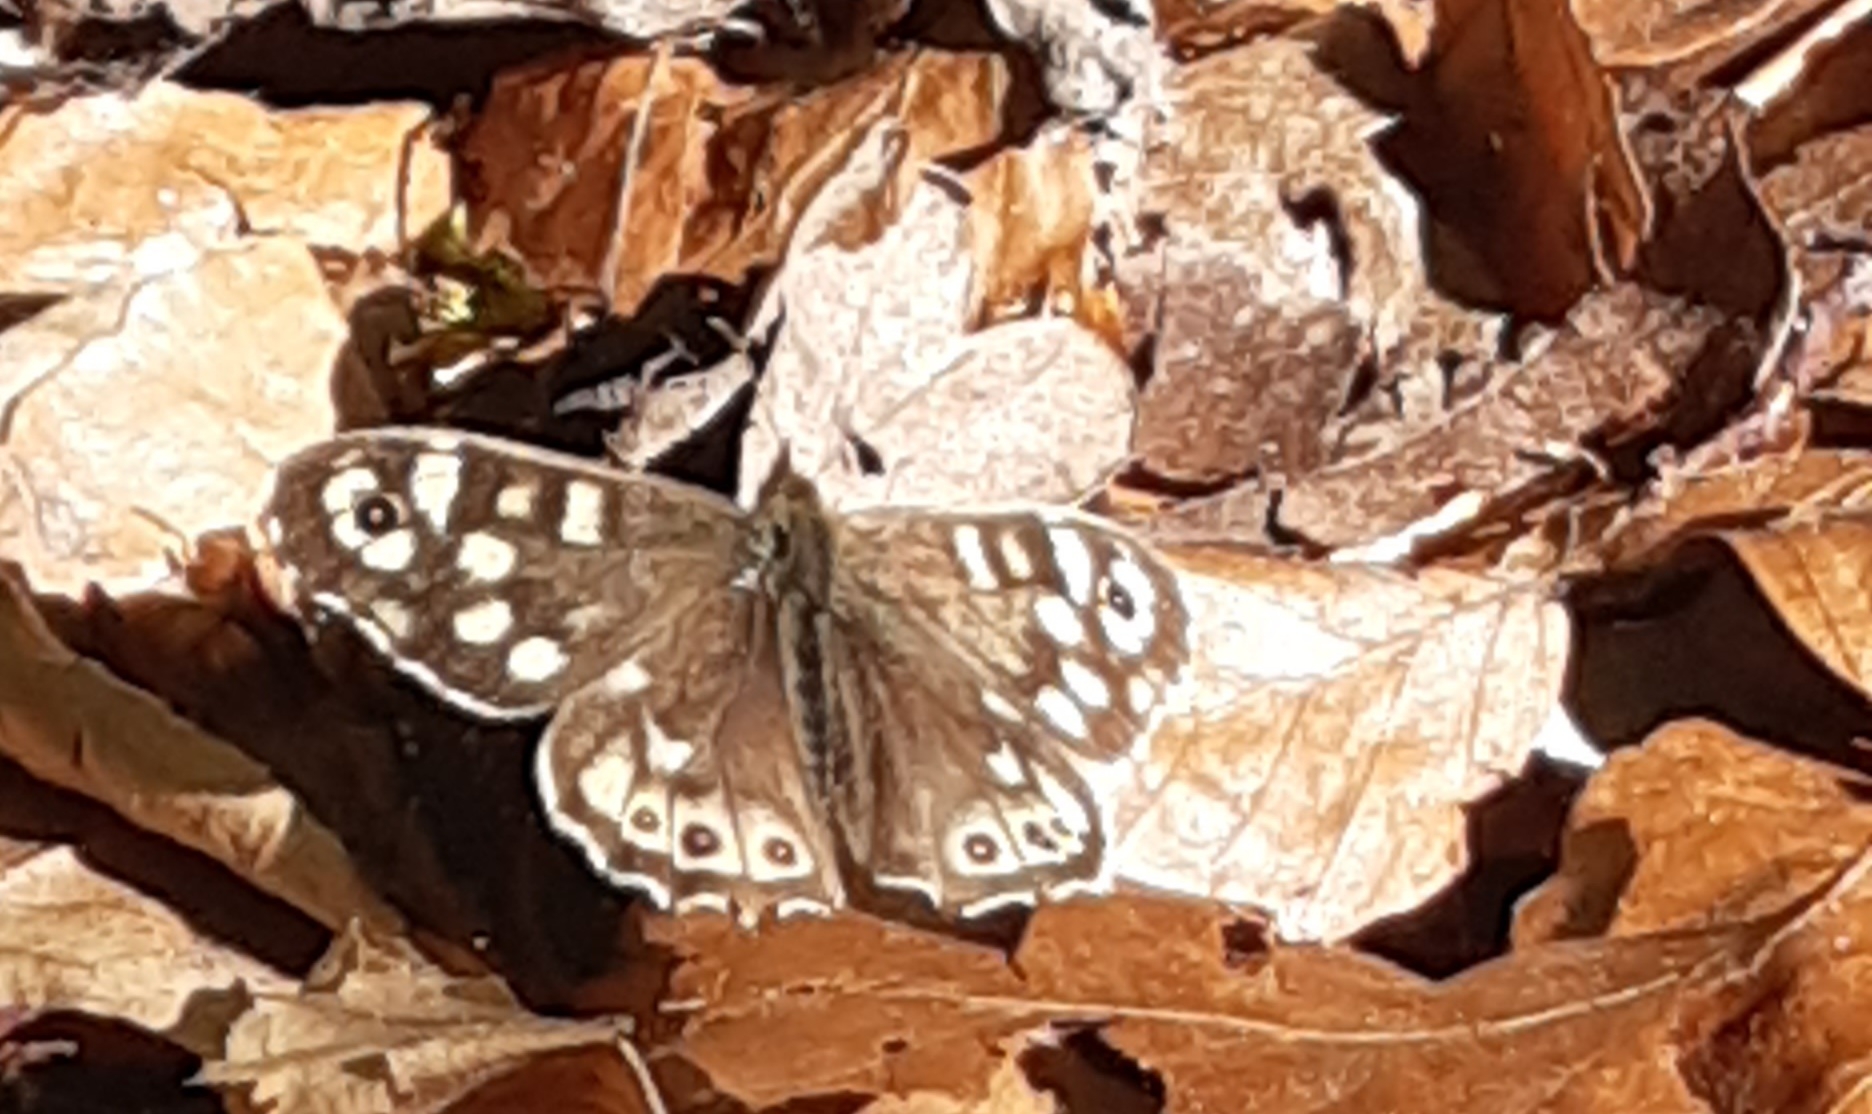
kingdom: Animalia
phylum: Arthropoda
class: Insecta
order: Lepidoptera
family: Nymphalidae
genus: Pararge
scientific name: Pararge aegeria
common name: Skovrandøje
